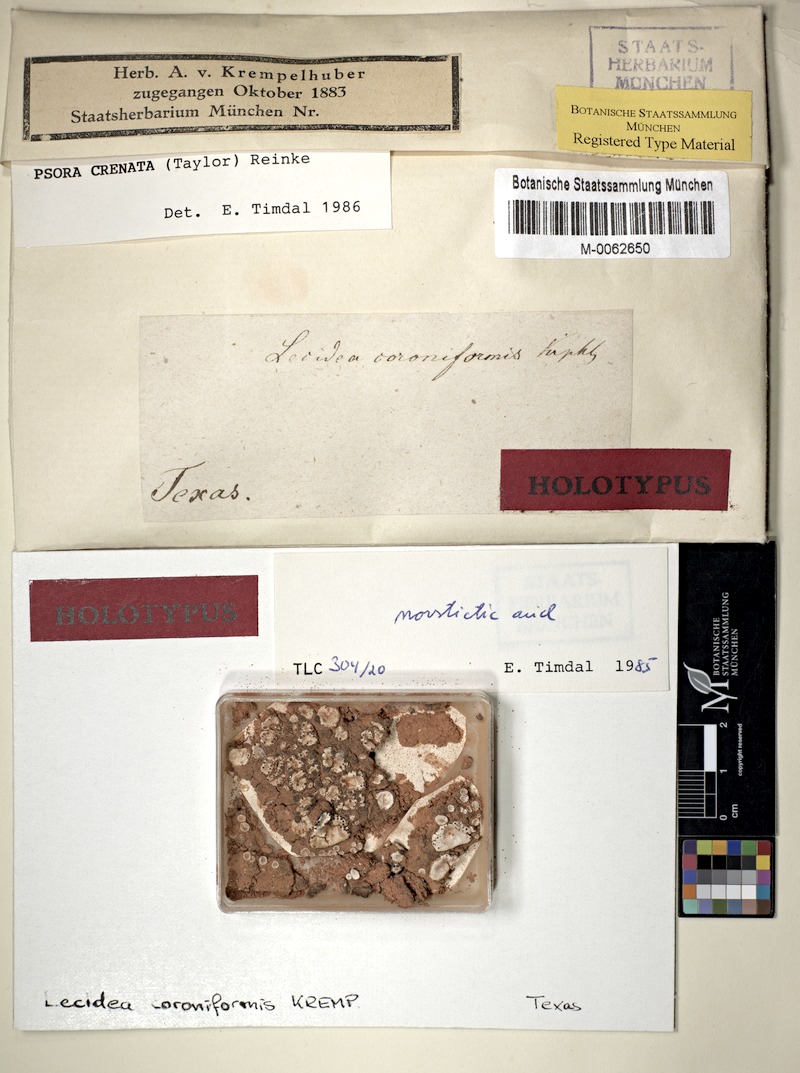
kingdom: Fungi
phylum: Ascomycota
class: Lecanoromycetes
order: Lecanorales
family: Psoraceae
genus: Psora
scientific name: Psora crenata
